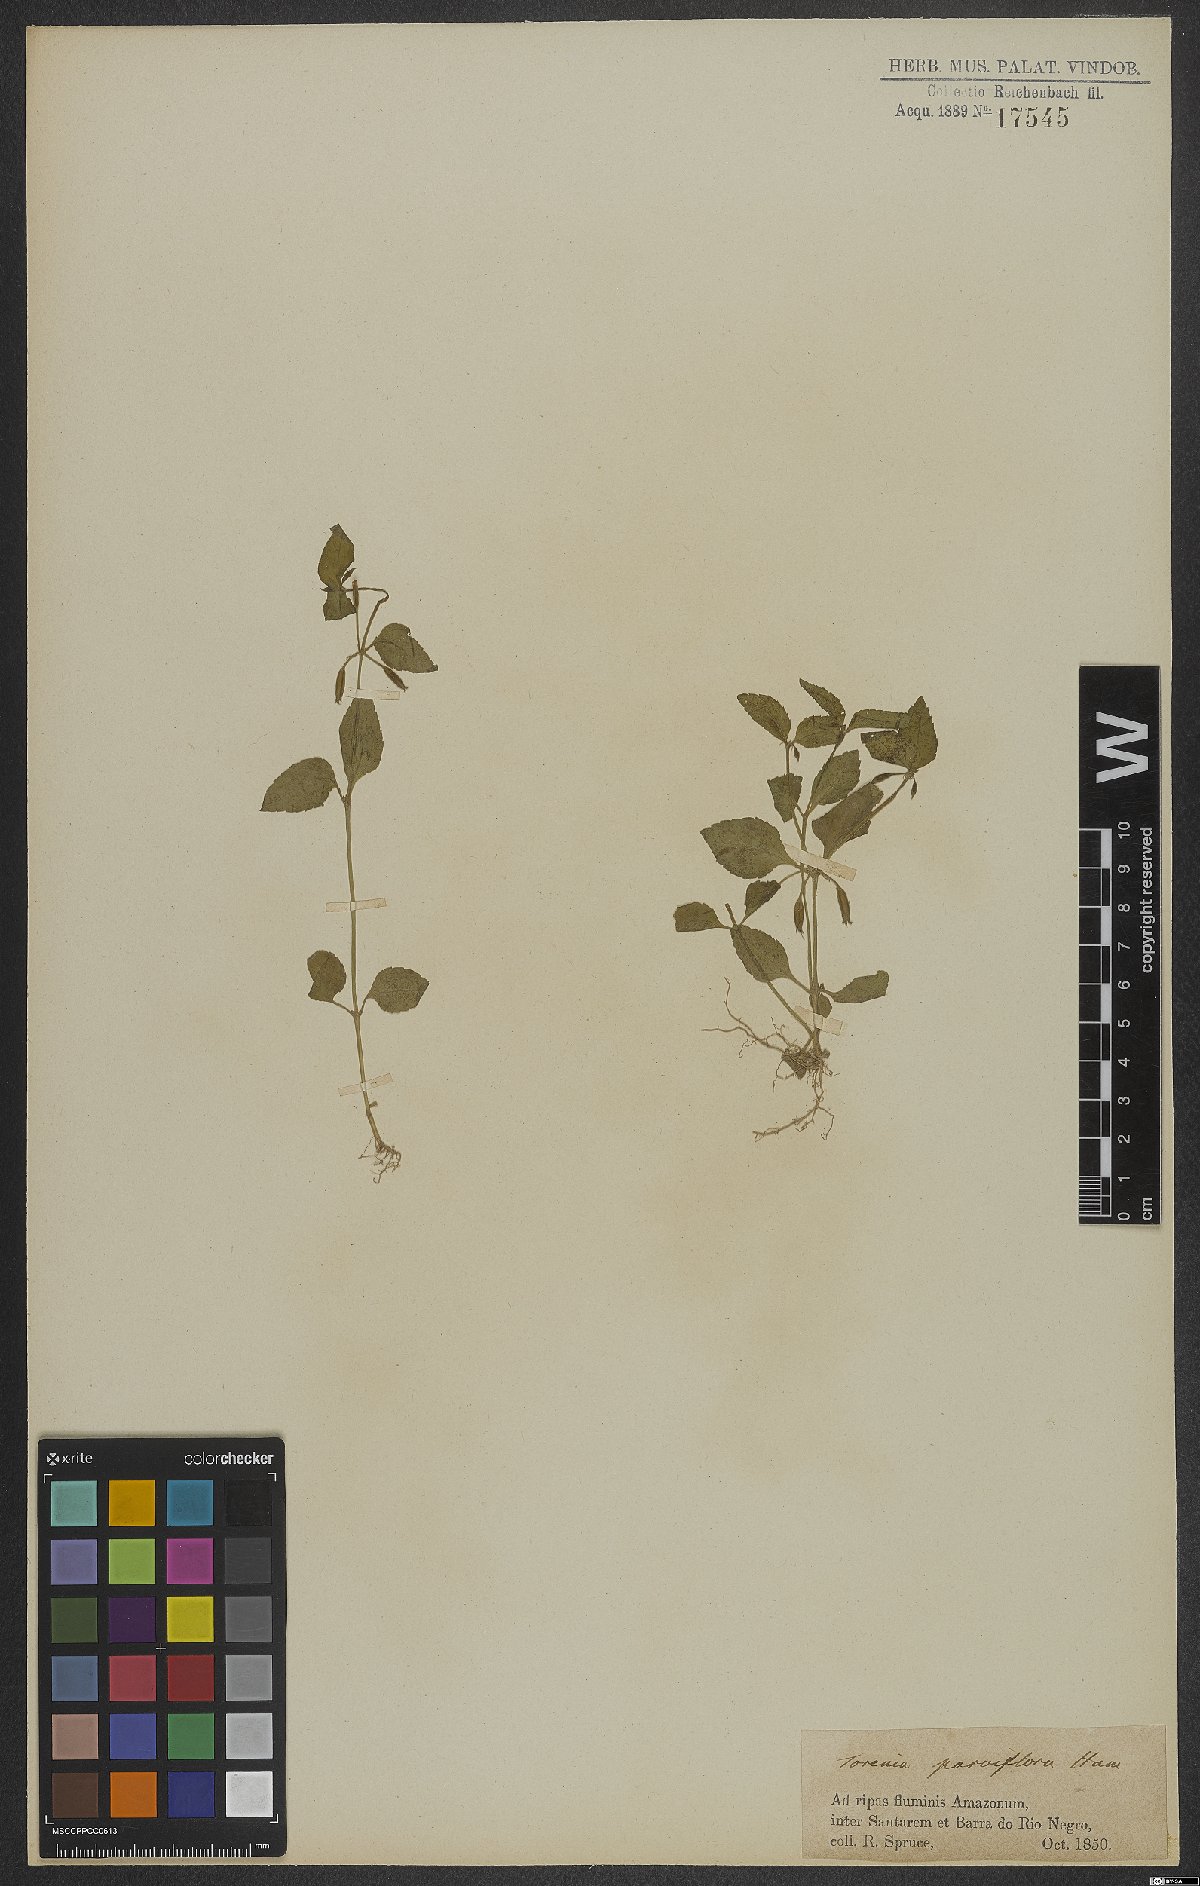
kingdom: Plantae
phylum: Tracheophyta
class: Magnoliopsida
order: Lamiales
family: Linderniaceae
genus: Torenia
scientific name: Torenia thouarsii
